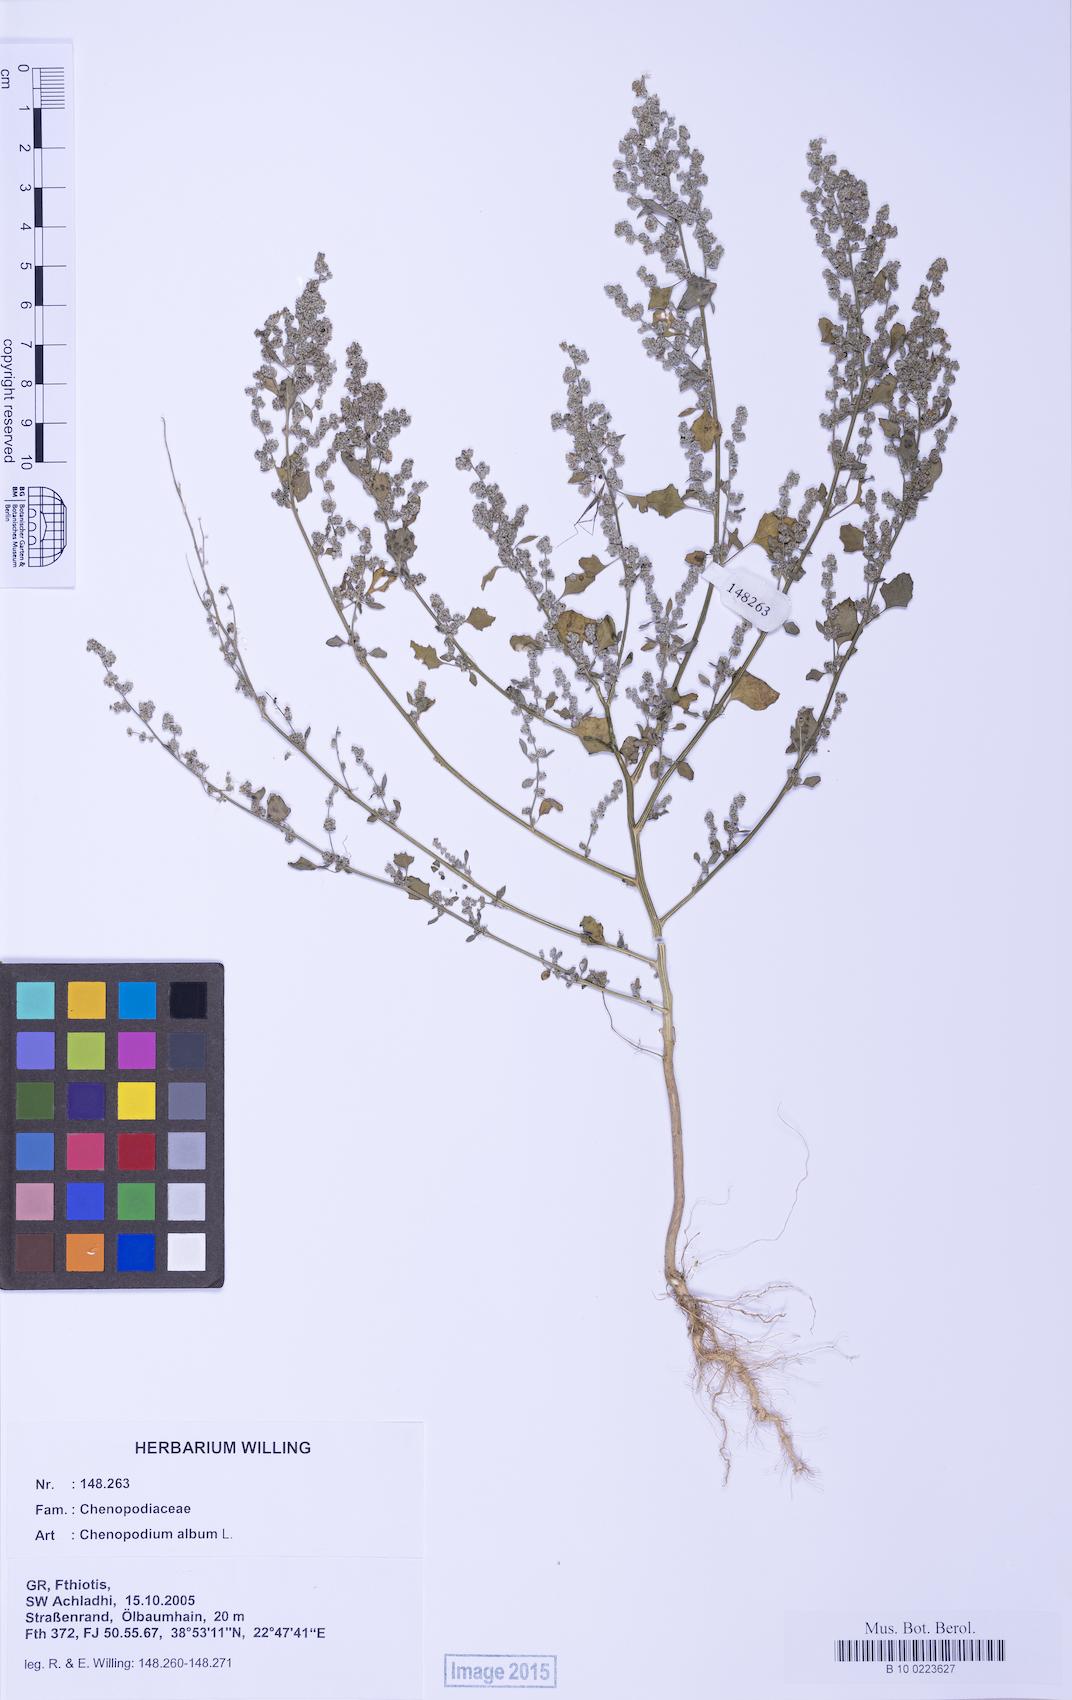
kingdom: Plantae
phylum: Tracheophyta
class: Magnoliopsida
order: Caryophyllales
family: Amaranthaceae
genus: Chenopodium
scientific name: Chenopodium album
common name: Fat-hen
